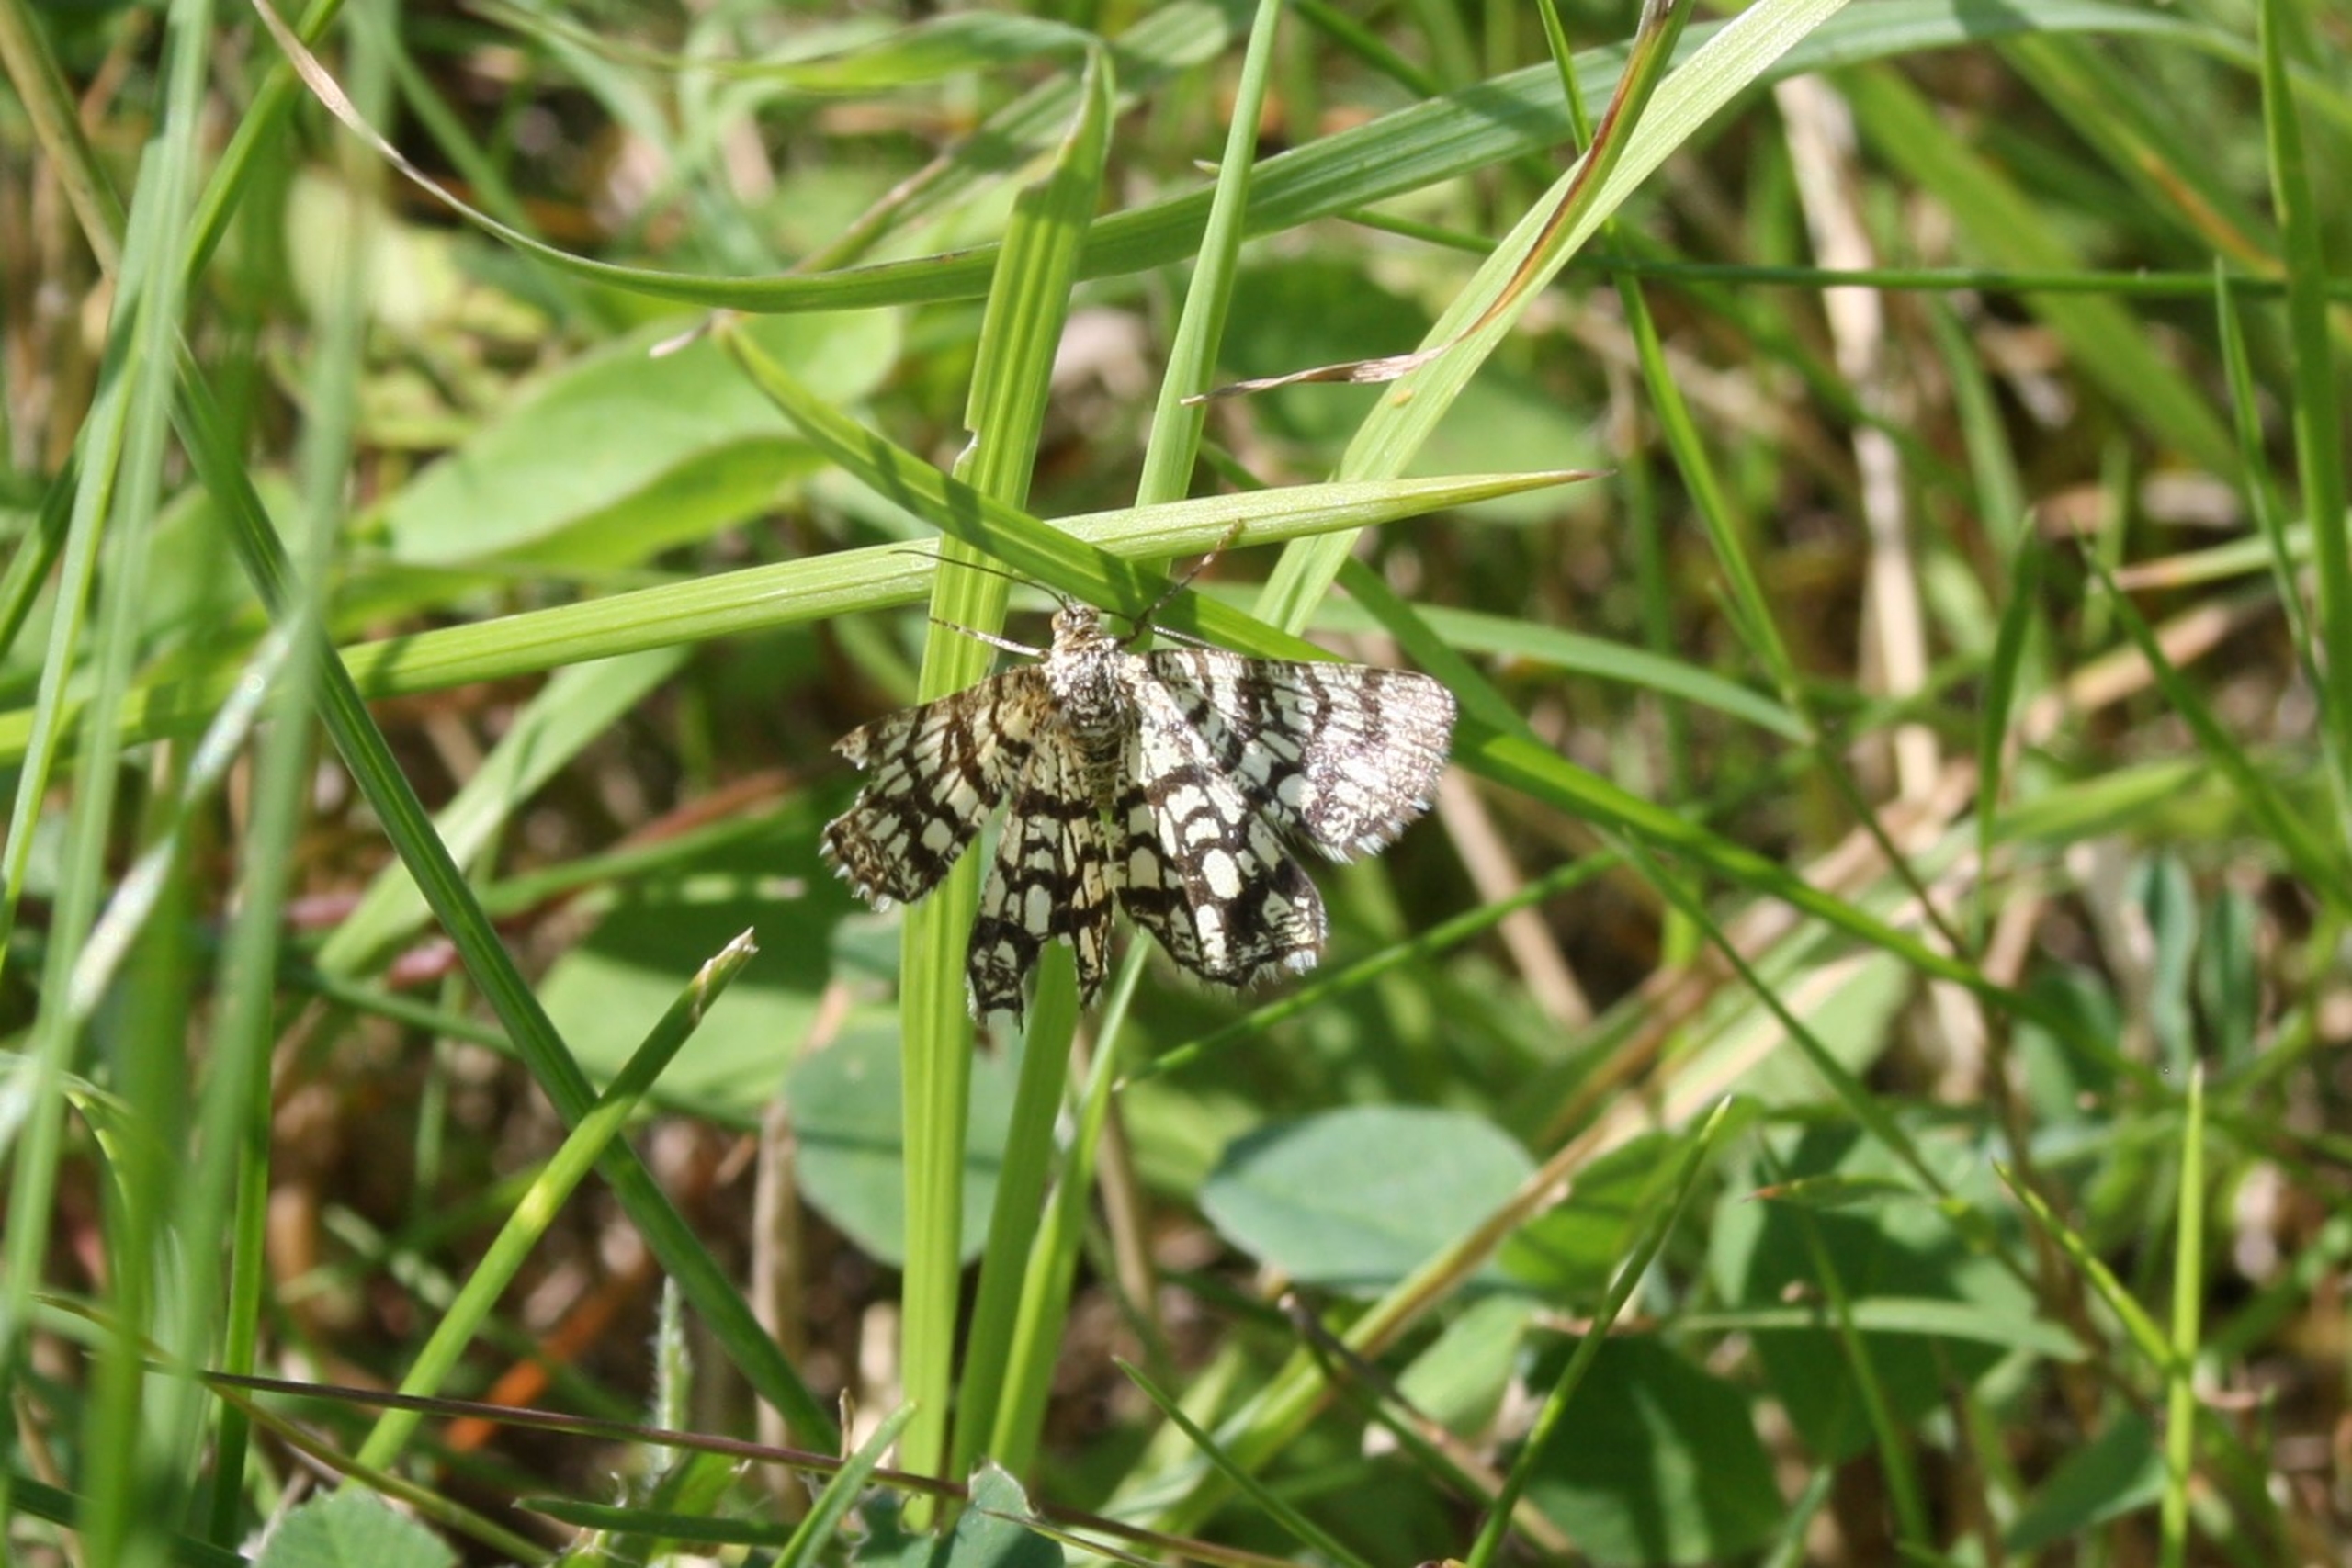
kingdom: Animalia
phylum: Arthropoda
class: Insecta
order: Lepidoptera
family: Geometridae
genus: Chiasmia
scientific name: Chiasmia clathrata
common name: Kløvermåler
